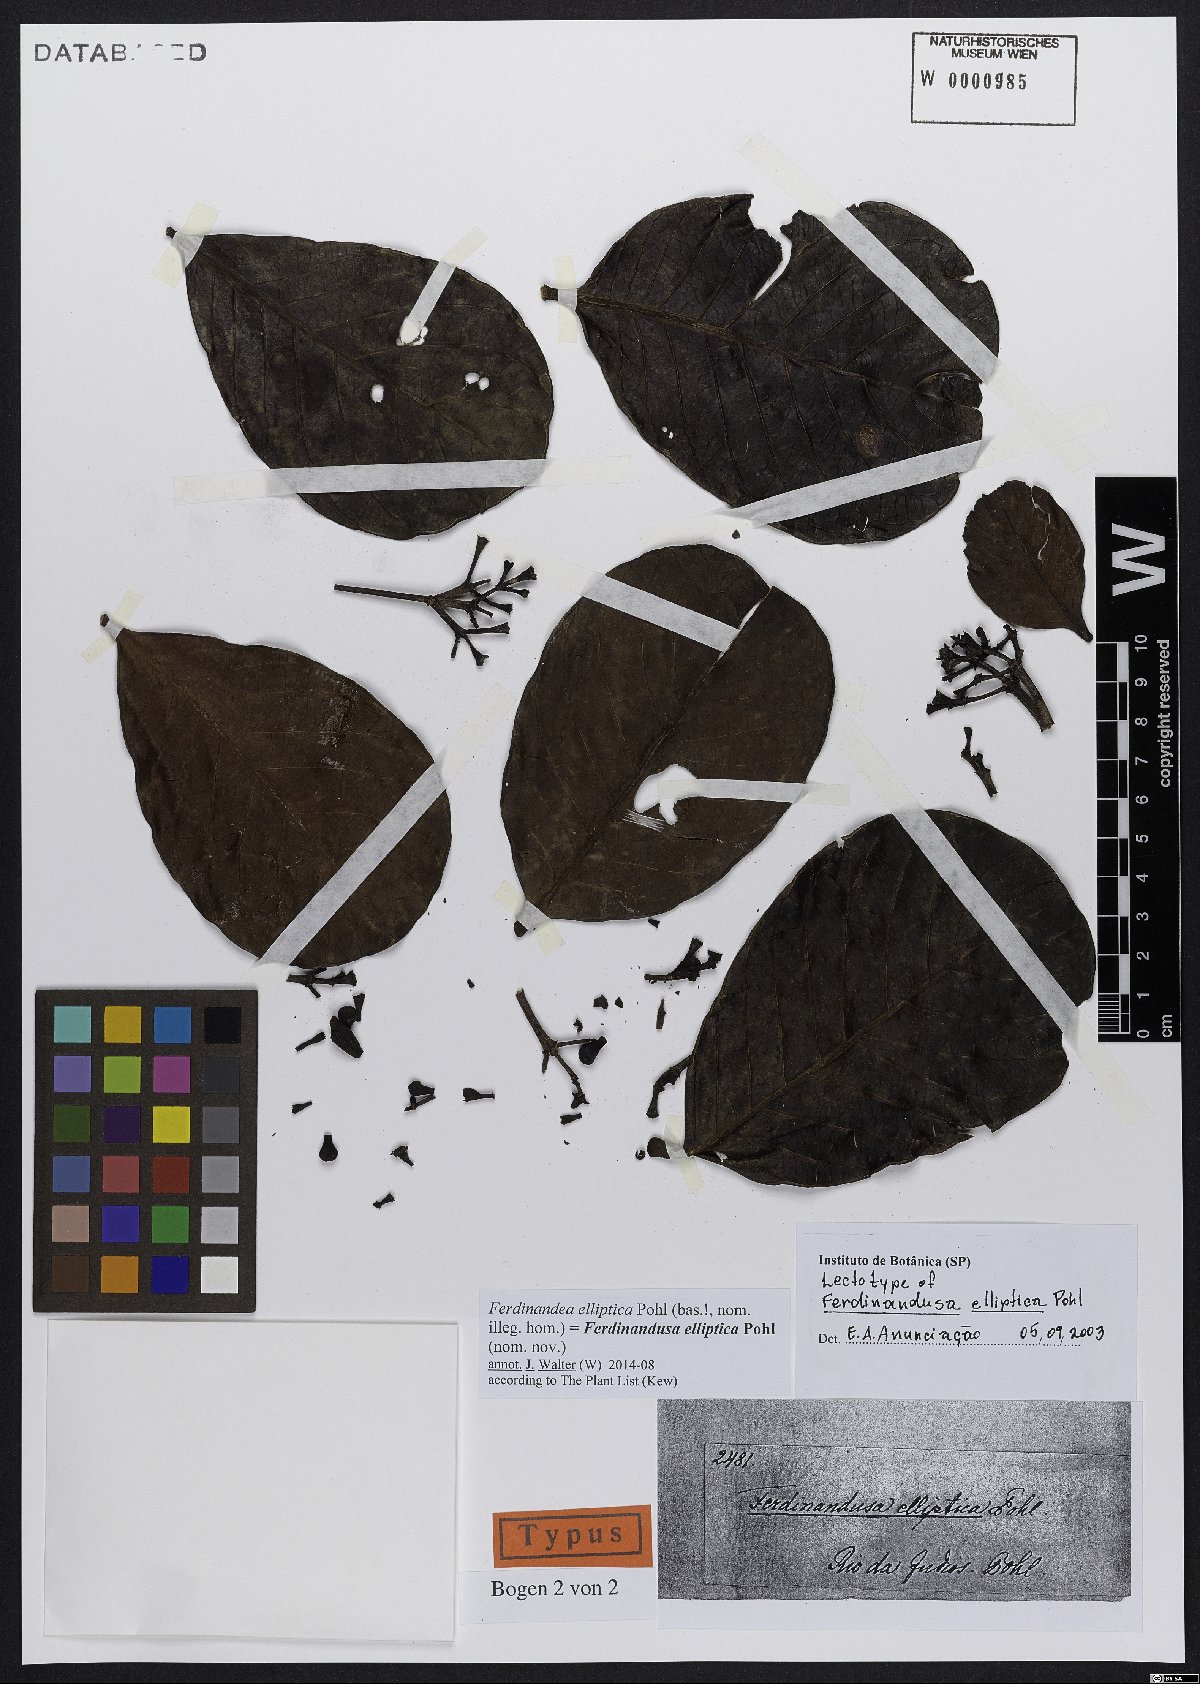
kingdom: Plantae
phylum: Tracheophyta
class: Magnoliopsida
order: Gentianales
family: Rubiaceae
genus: Ferdinandusa
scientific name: Ferdinandusa elliptica
